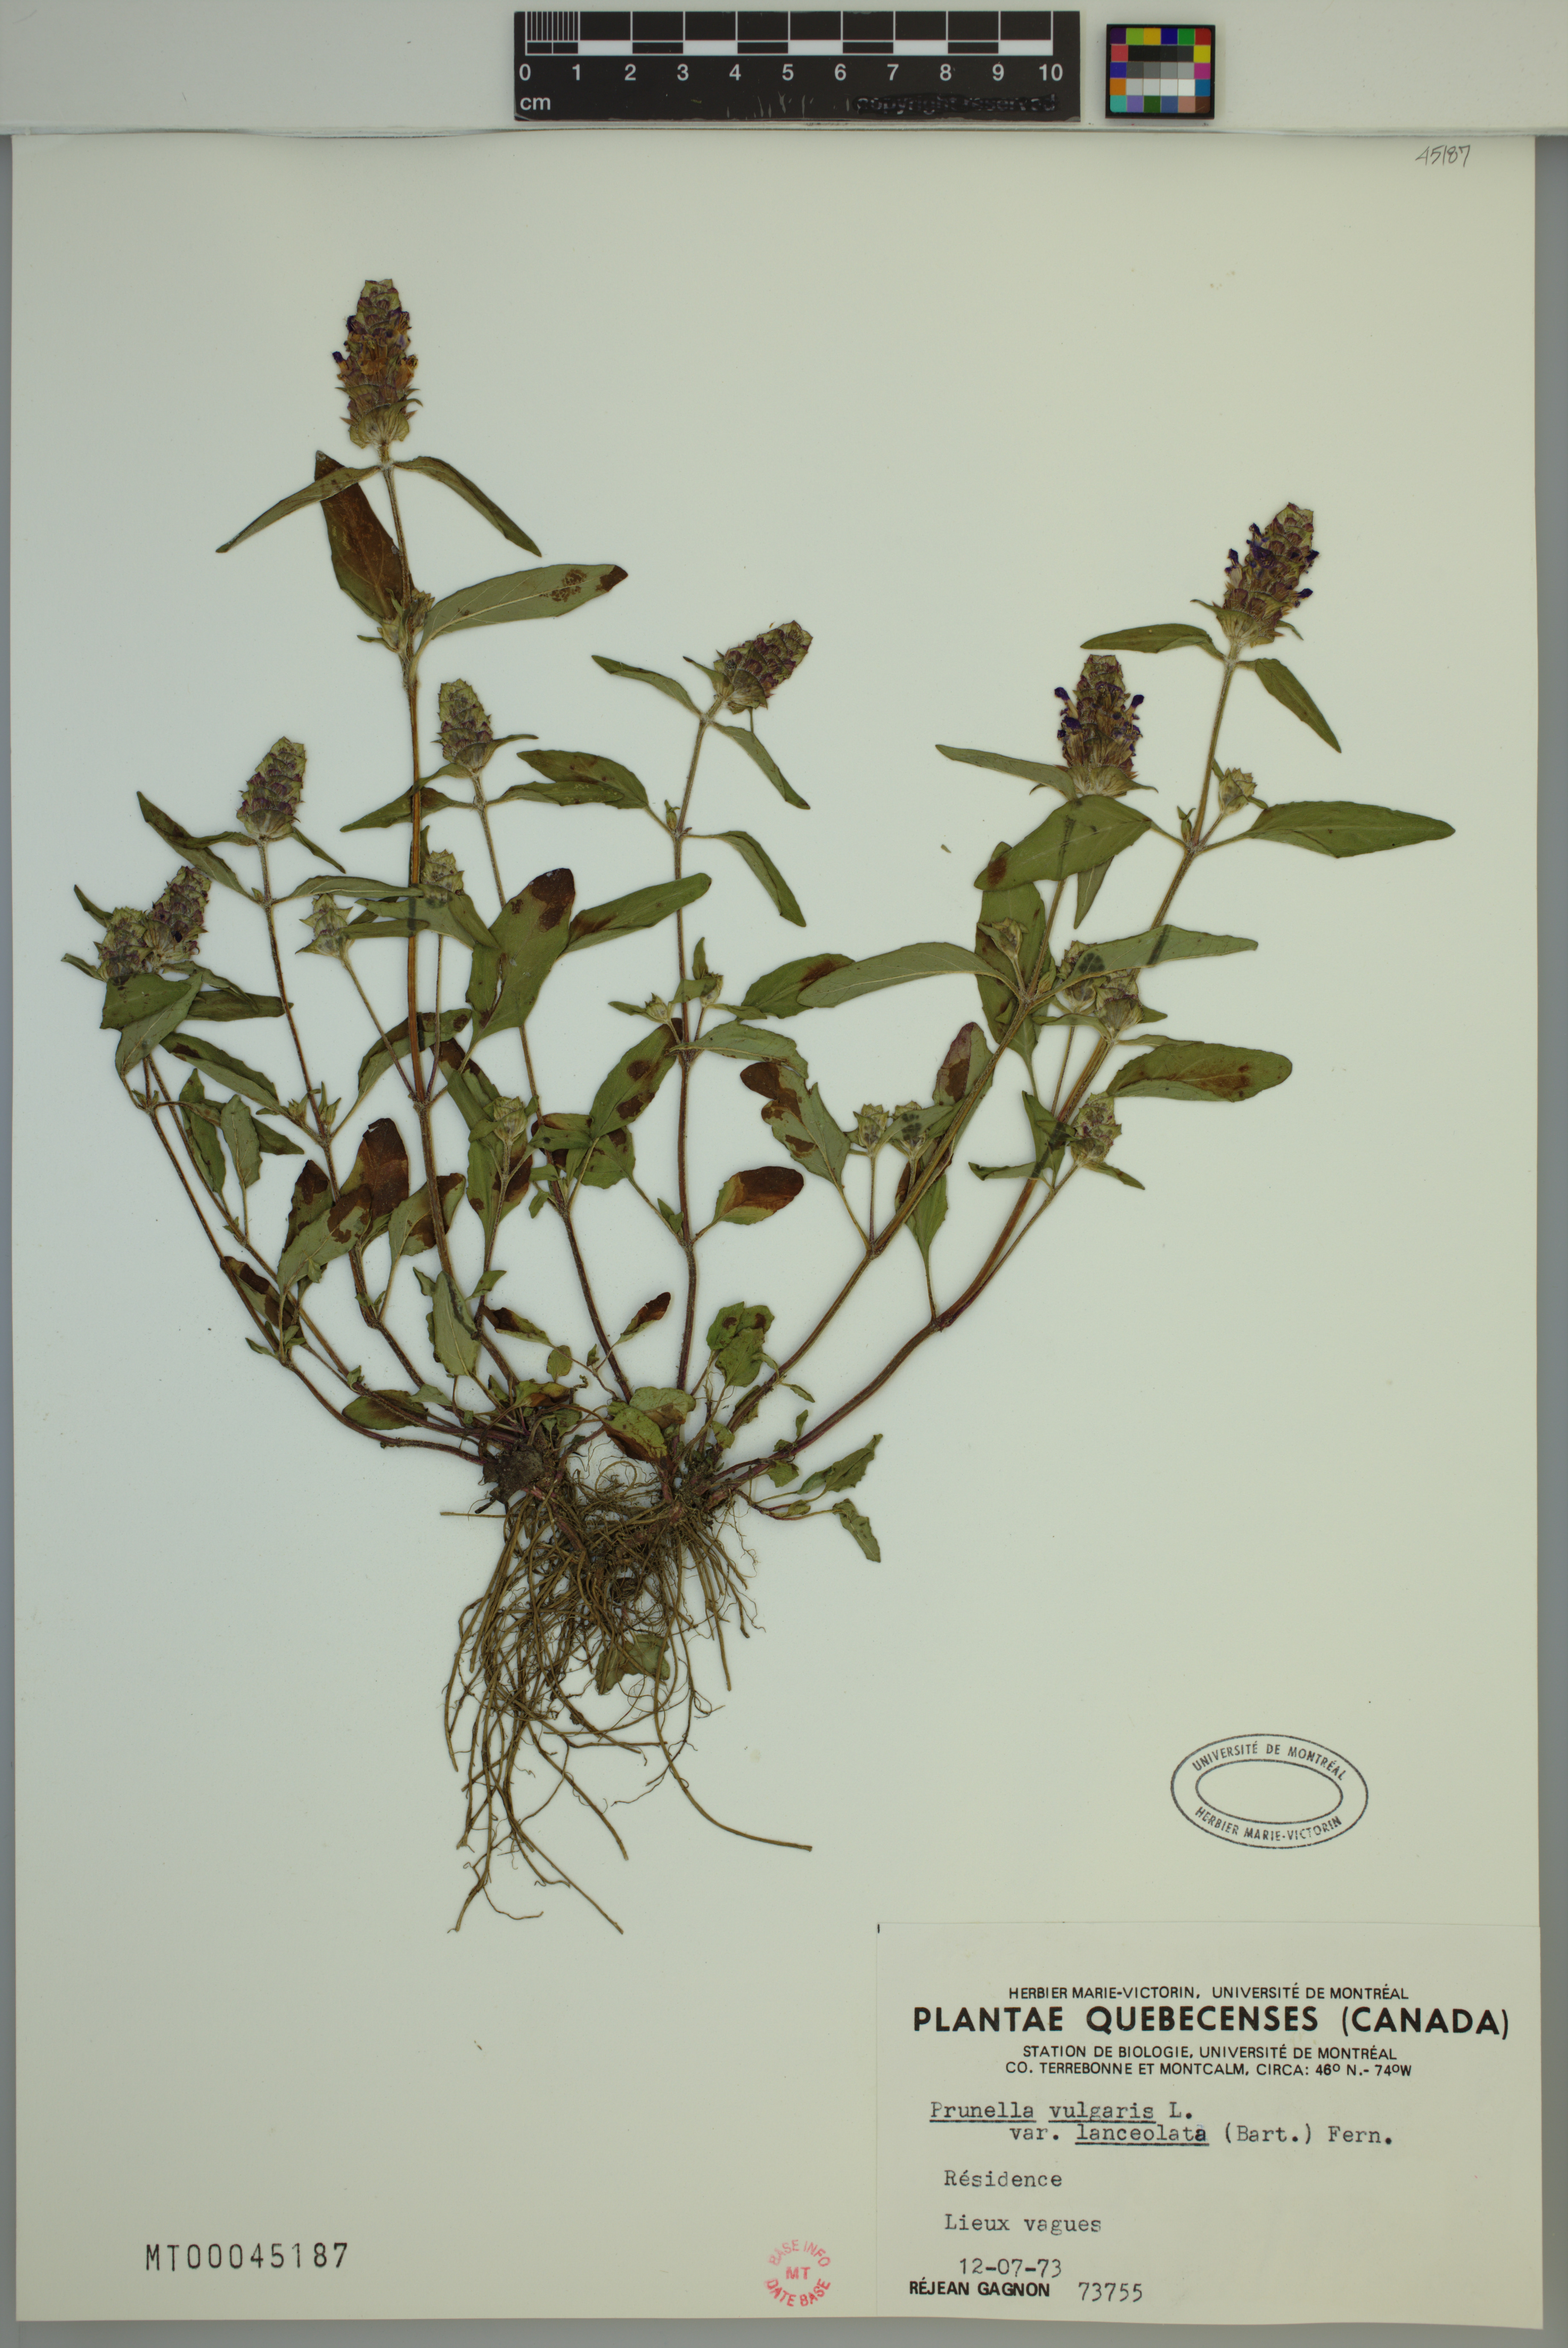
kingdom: Plantae
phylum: Tracheophyta
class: Magnoliopsida
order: Lamiales
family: Lamiaceae
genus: Prunella
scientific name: Prunella vulgaris
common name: Heal-all
